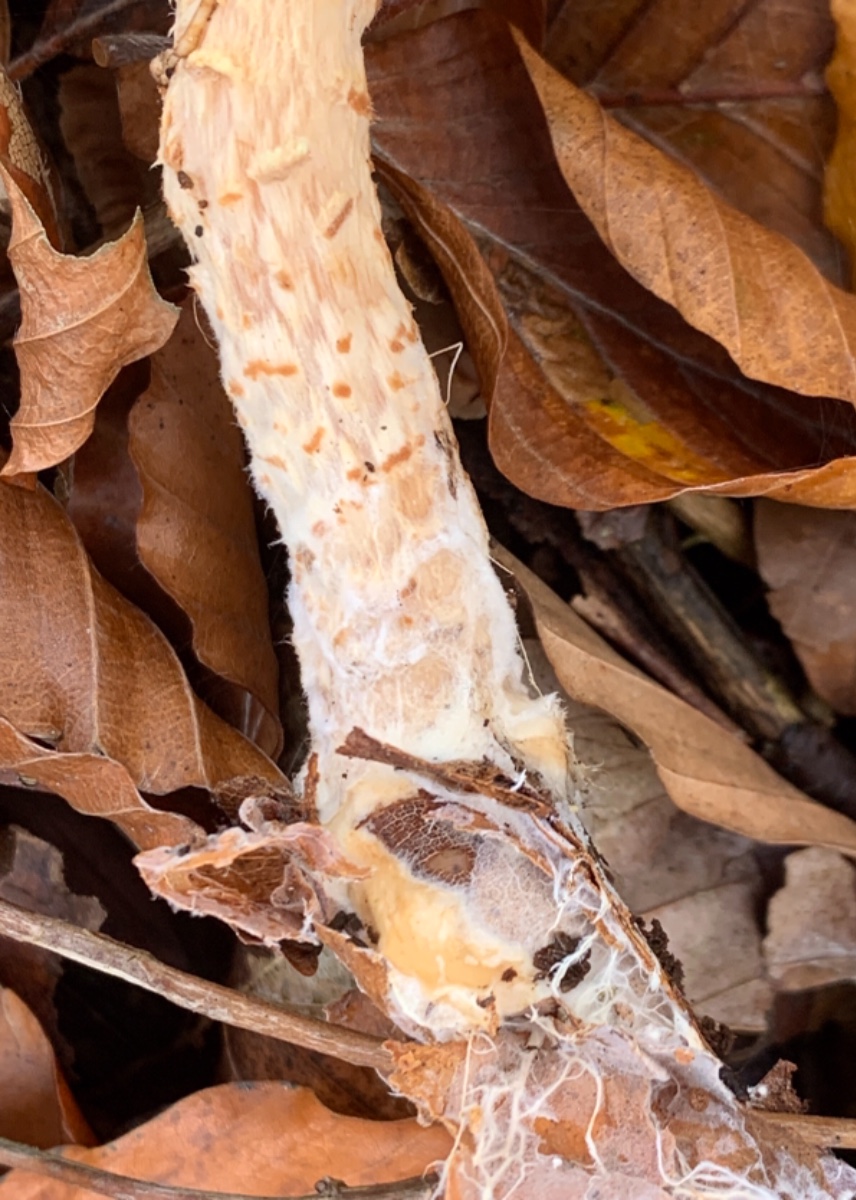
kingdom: Fungi
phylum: Basidiomycota
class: Agaricomycetes
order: Agaricales
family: Agaricaceae
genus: Lepiota
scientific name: Lepiota magnispora
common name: gulfnugget parasolhat
